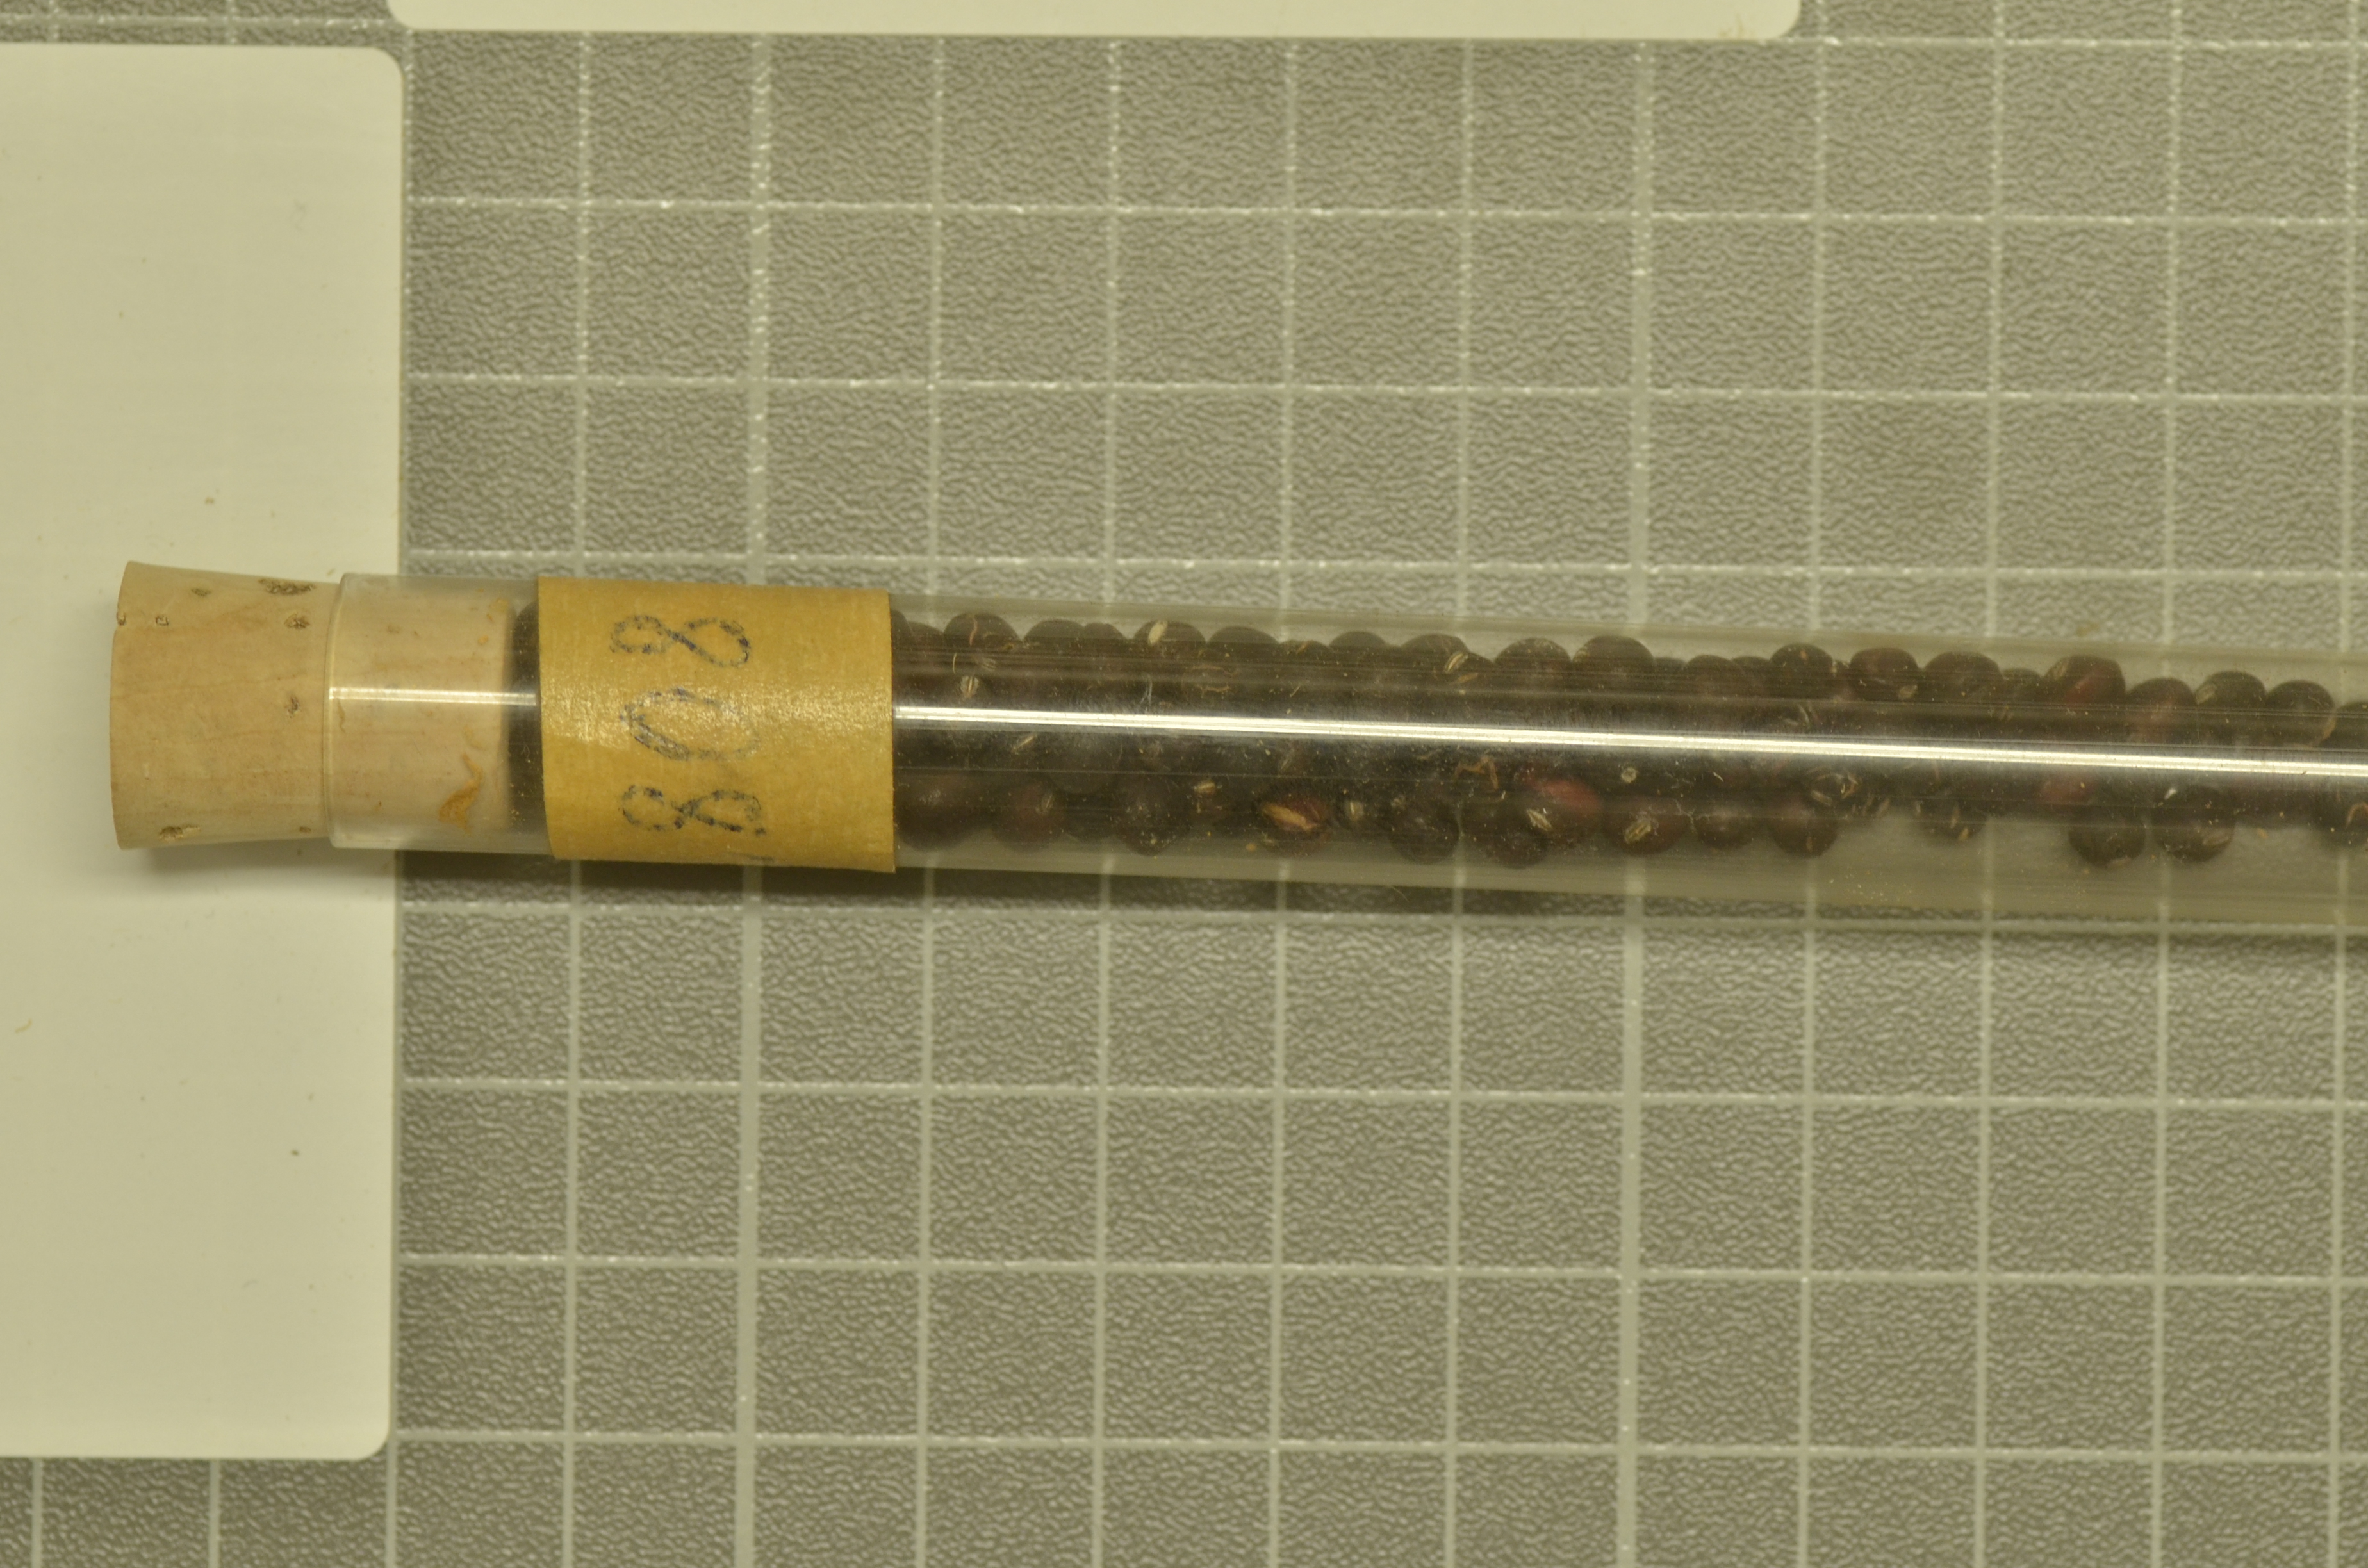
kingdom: Plantae
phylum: Tracheophyta
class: Magnoliopsida
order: Fabales
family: Fabaceae
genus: Lathyrus
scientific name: Lathyrus oleraceus
